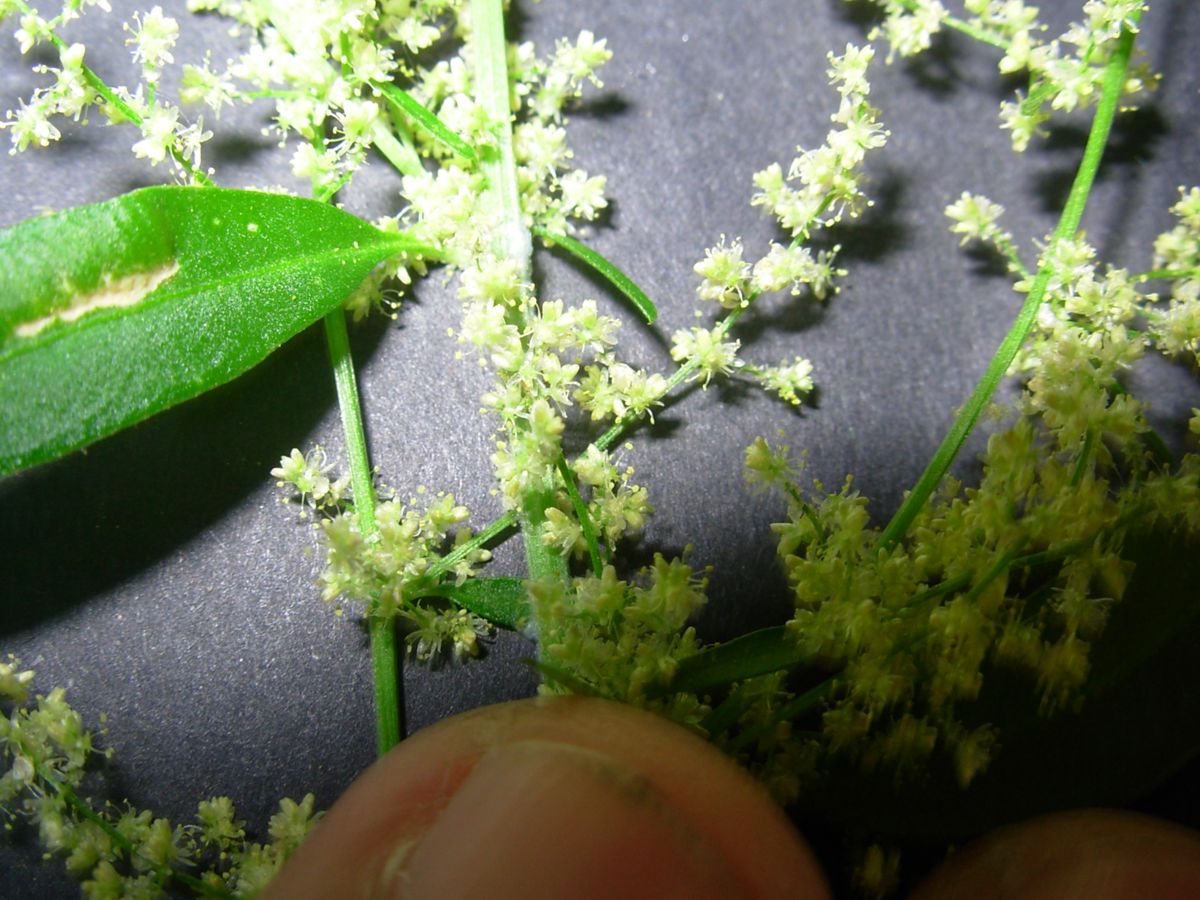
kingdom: Plantae
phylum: Tracheophyta
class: Magnoliopsida
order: Caryophyllales
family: Amaranthaceae
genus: Iresine
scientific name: Iresine diffusa
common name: Juba's-bush
